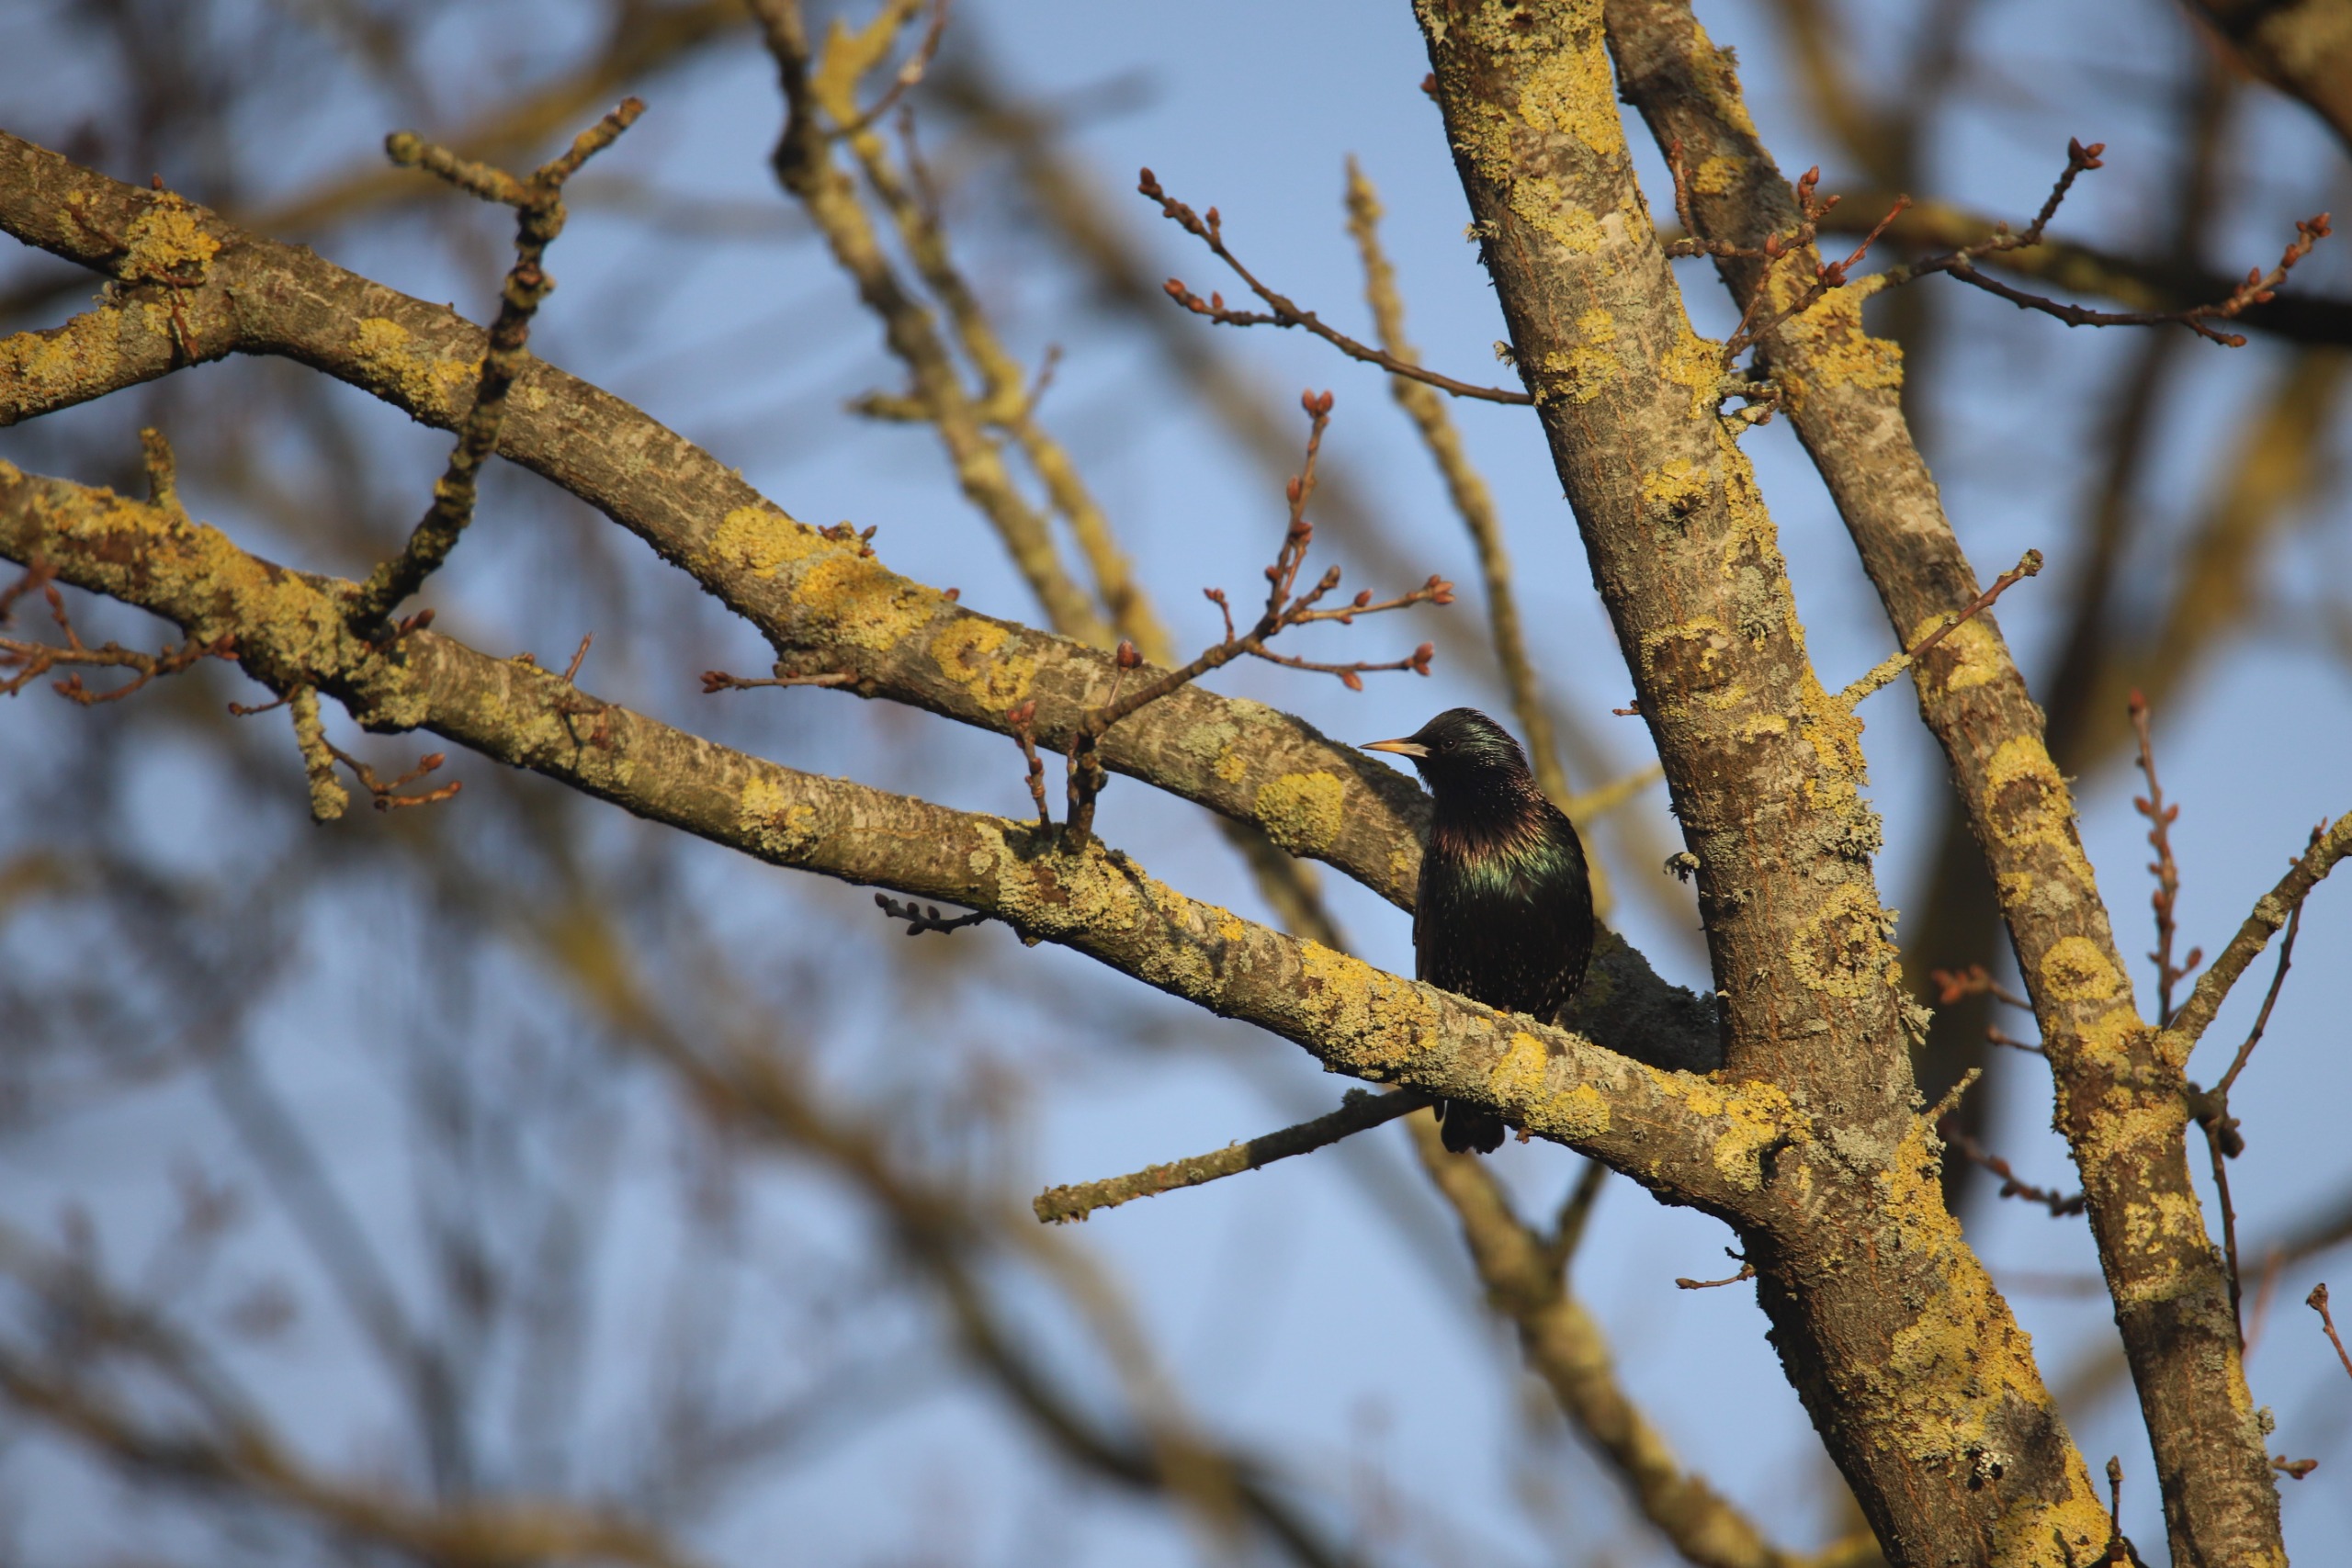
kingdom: Animalia
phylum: Chordata
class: Aves
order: Passeriformes
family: Sturnidae
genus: Sturnus
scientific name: Sturnus vulgaris
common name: Stær
